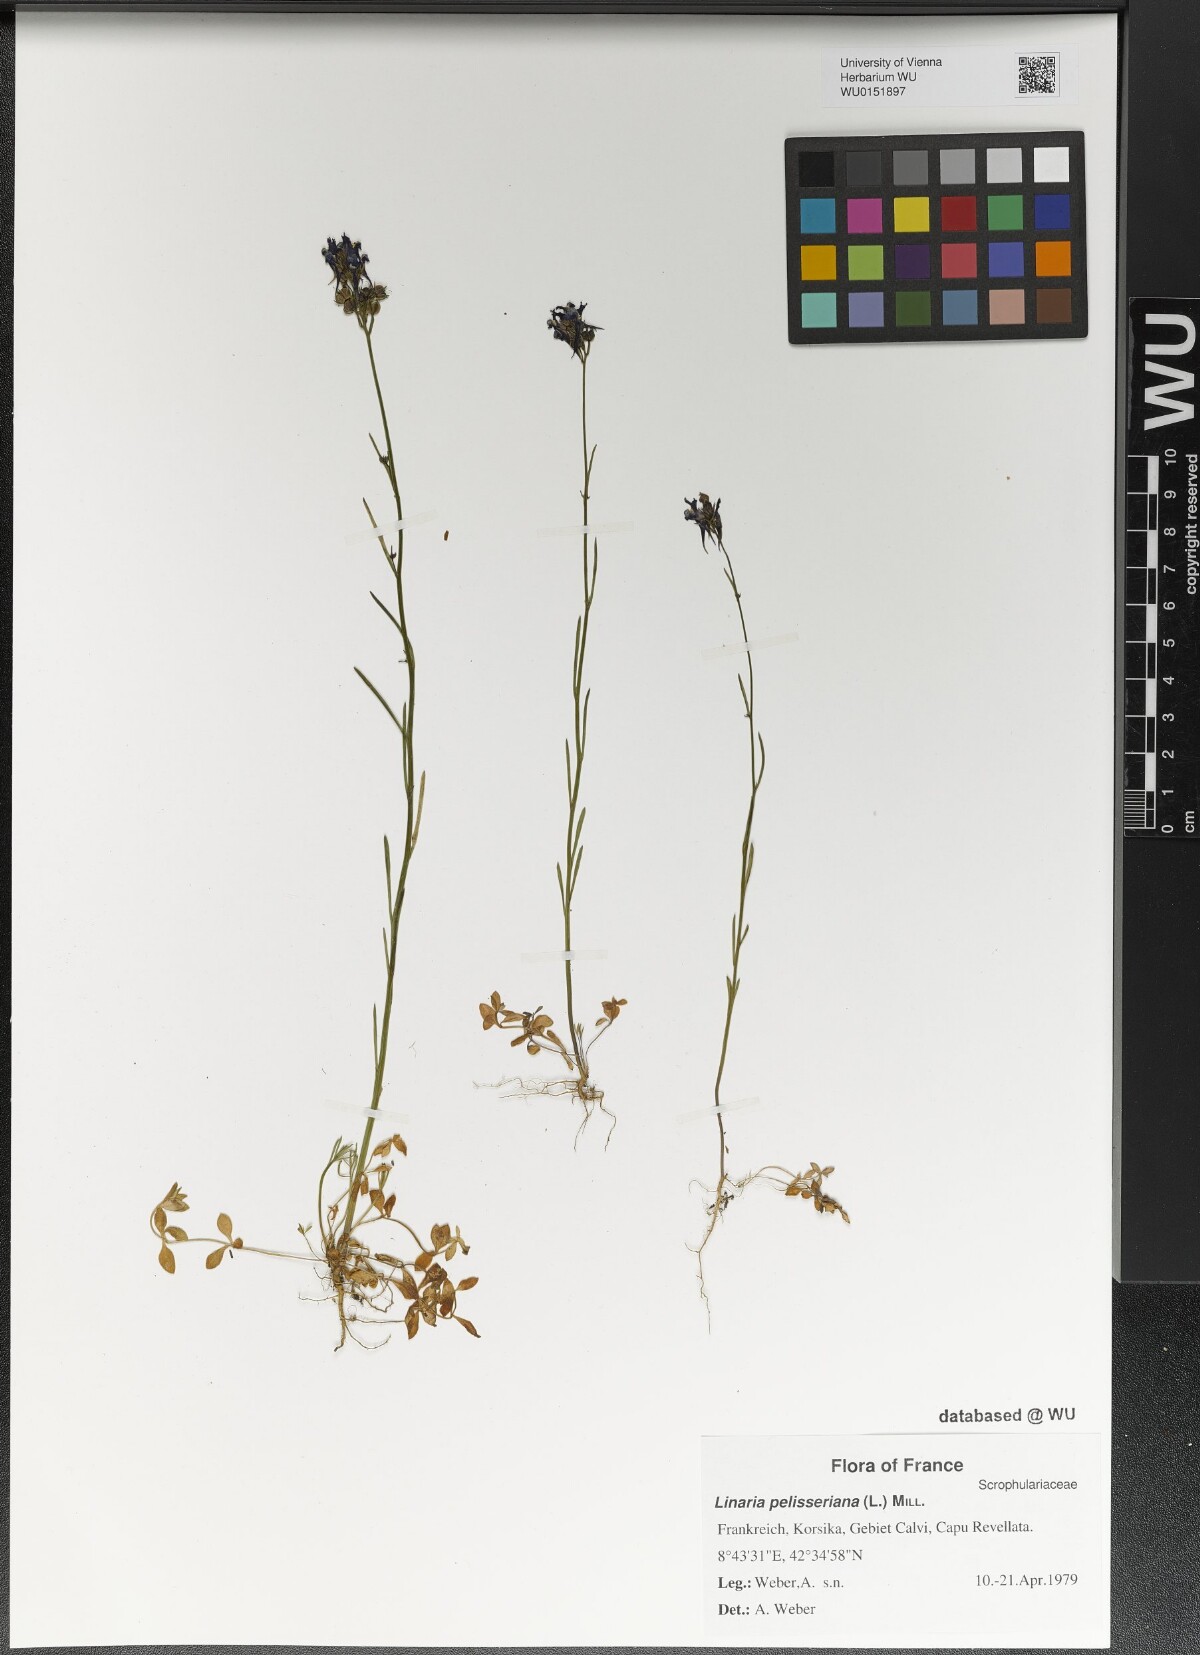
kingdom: Plantae
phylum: Tracheophyta
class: Magnoliopsida
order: Lamiales
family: Plantaginaceae
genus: Linaria
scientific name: Linaria pelisseriana
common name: Jersey toadflax
